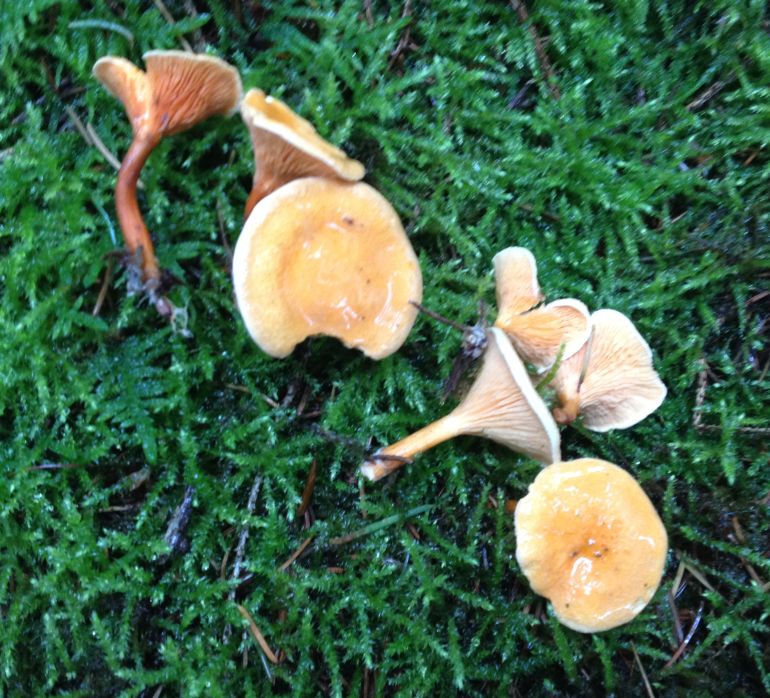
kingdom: Fungi
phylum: Basidiomycota
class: Agaricomycetes
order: Boletales
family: Hygrophoropsidaceae
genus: Hygrophoropsis
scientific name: Hygrophoropsis aurantiaca
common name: almindelig orangekantarel
